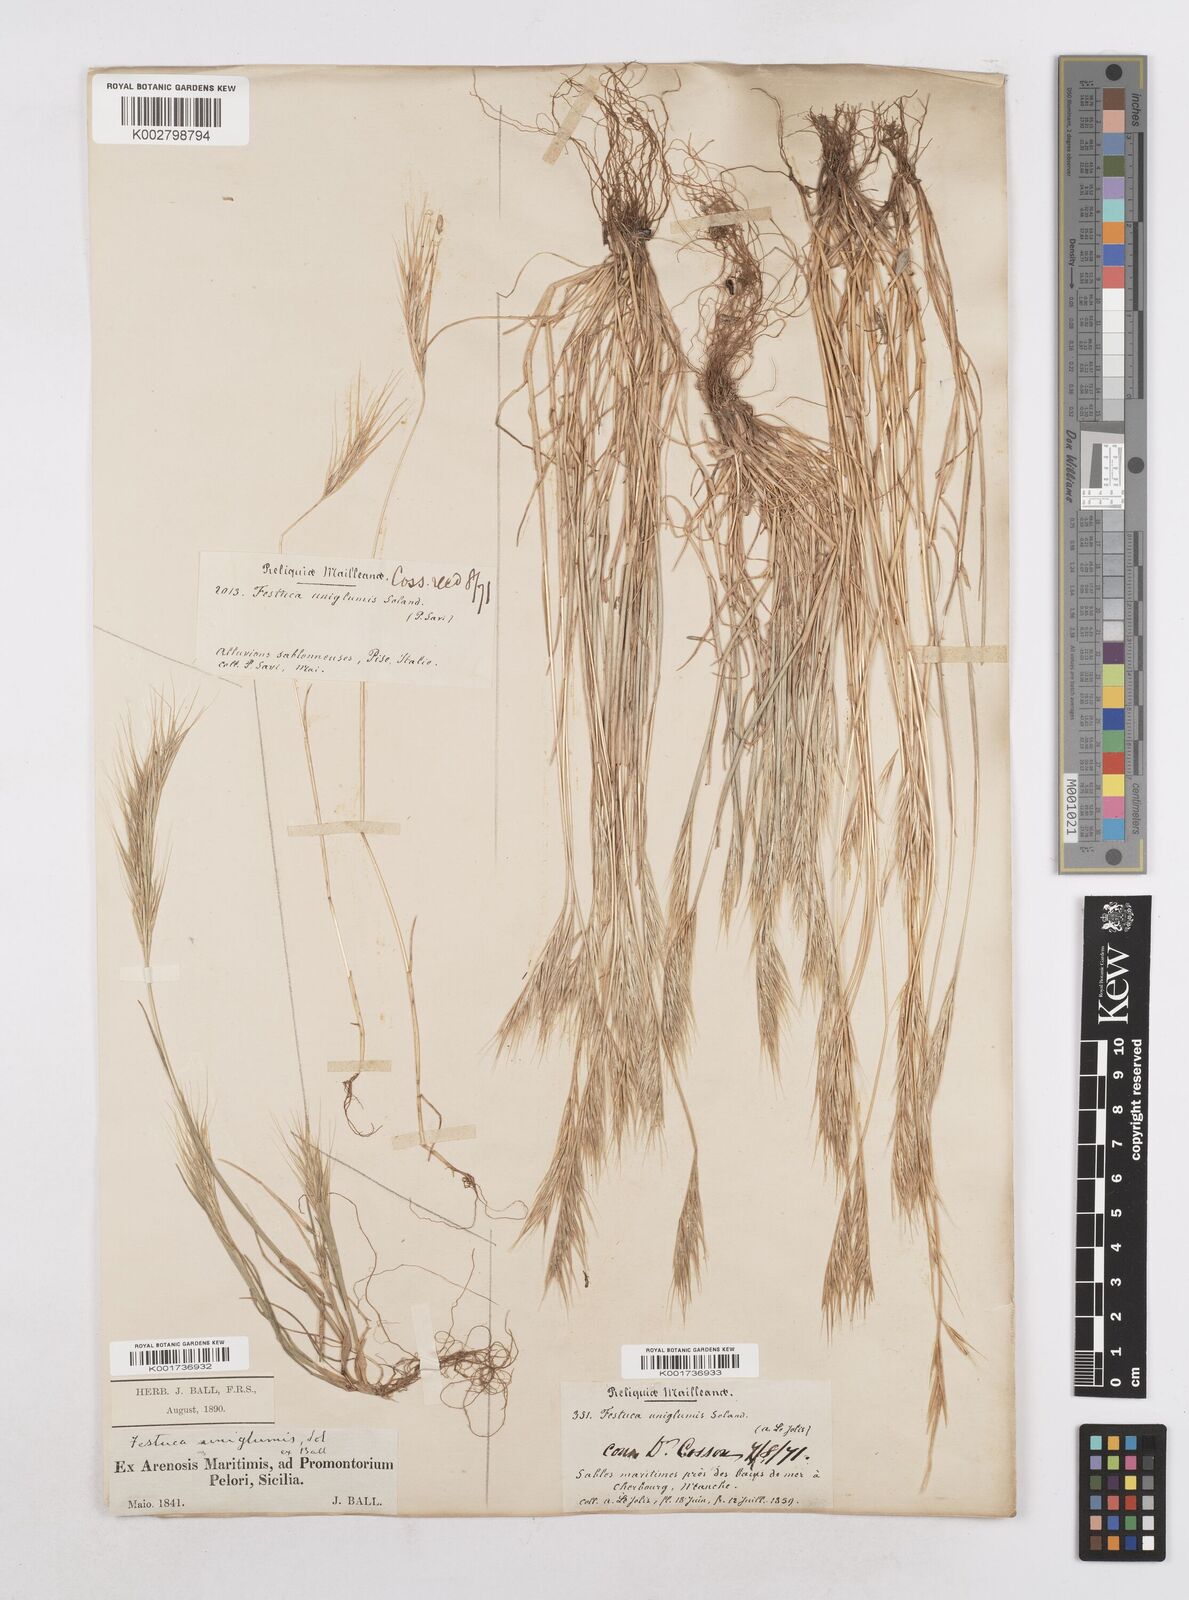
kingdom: Plantae
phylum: Tracheophyta
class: Liliopsida
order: Poales
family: Poaceae
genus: Festuca
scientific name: Festuca fasciculata
